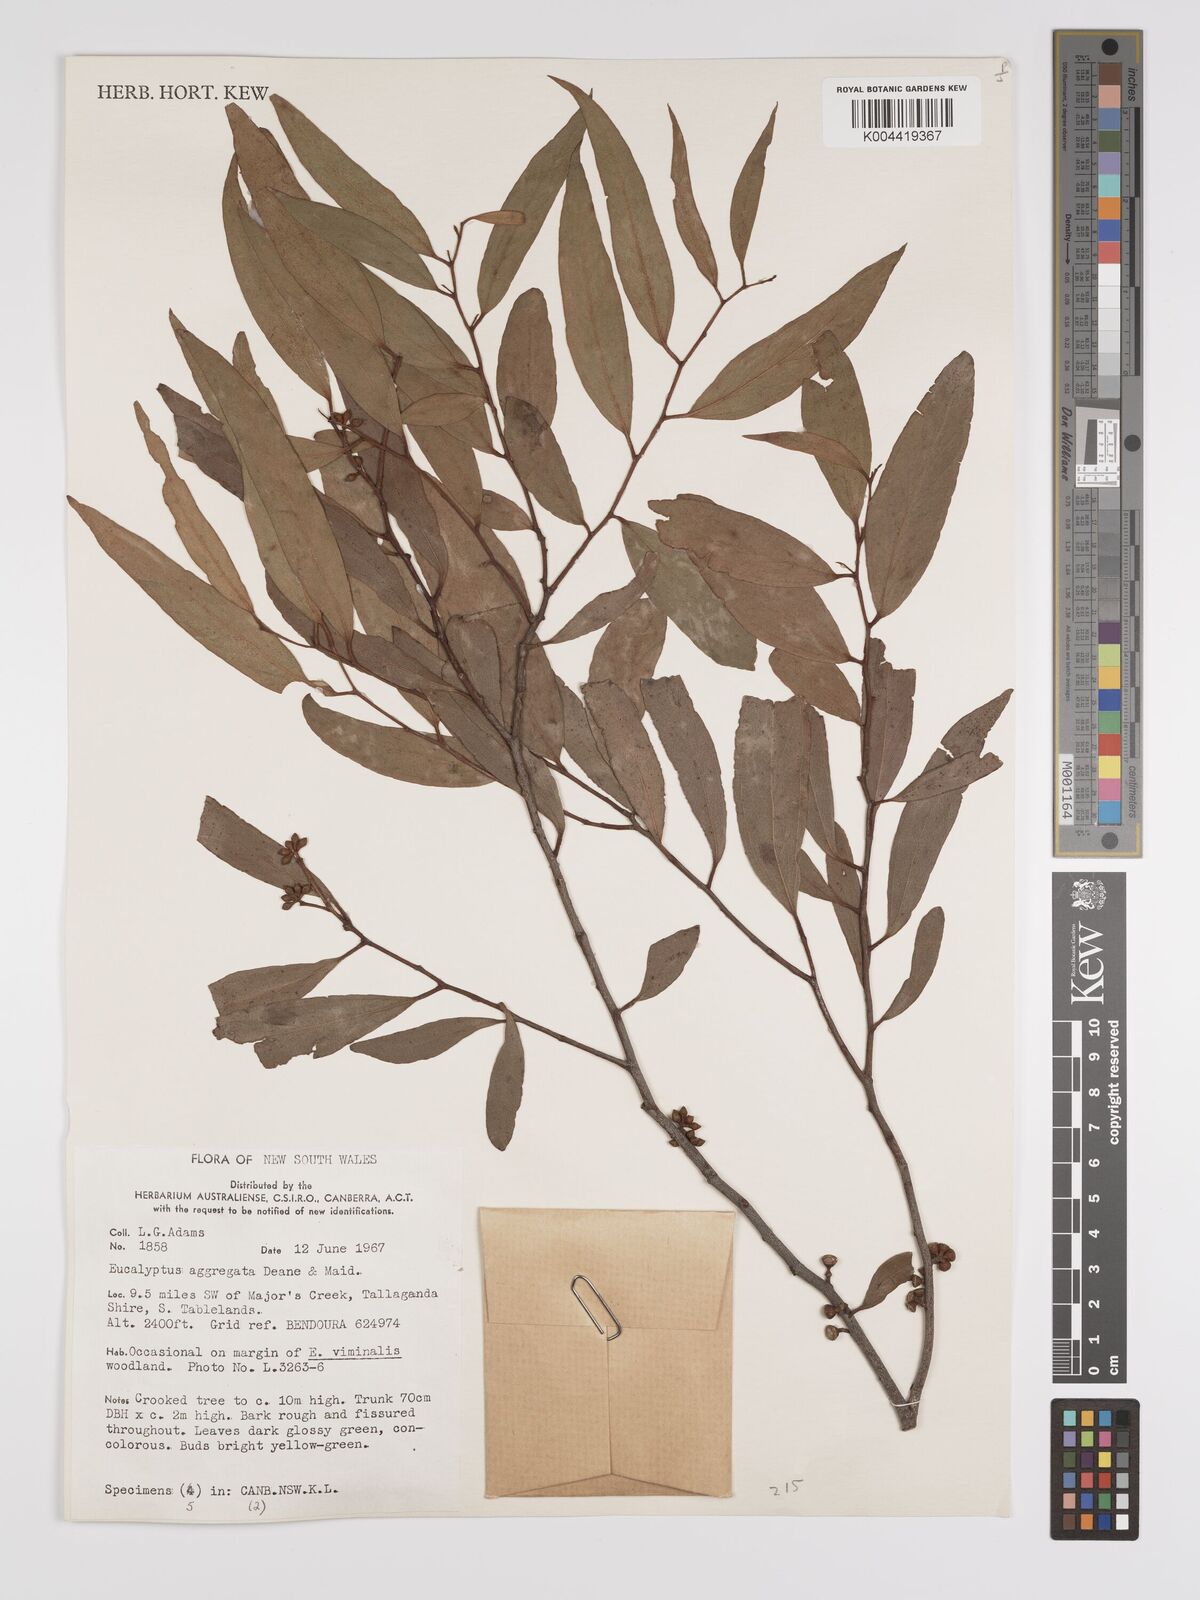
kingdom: Plantae
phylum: Tracheophyta
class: Magnoliopsida
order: Myrtales
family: Myrtaceae
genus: Eucalyptus
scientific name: Eucalyptus aggregata
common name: Black gum
